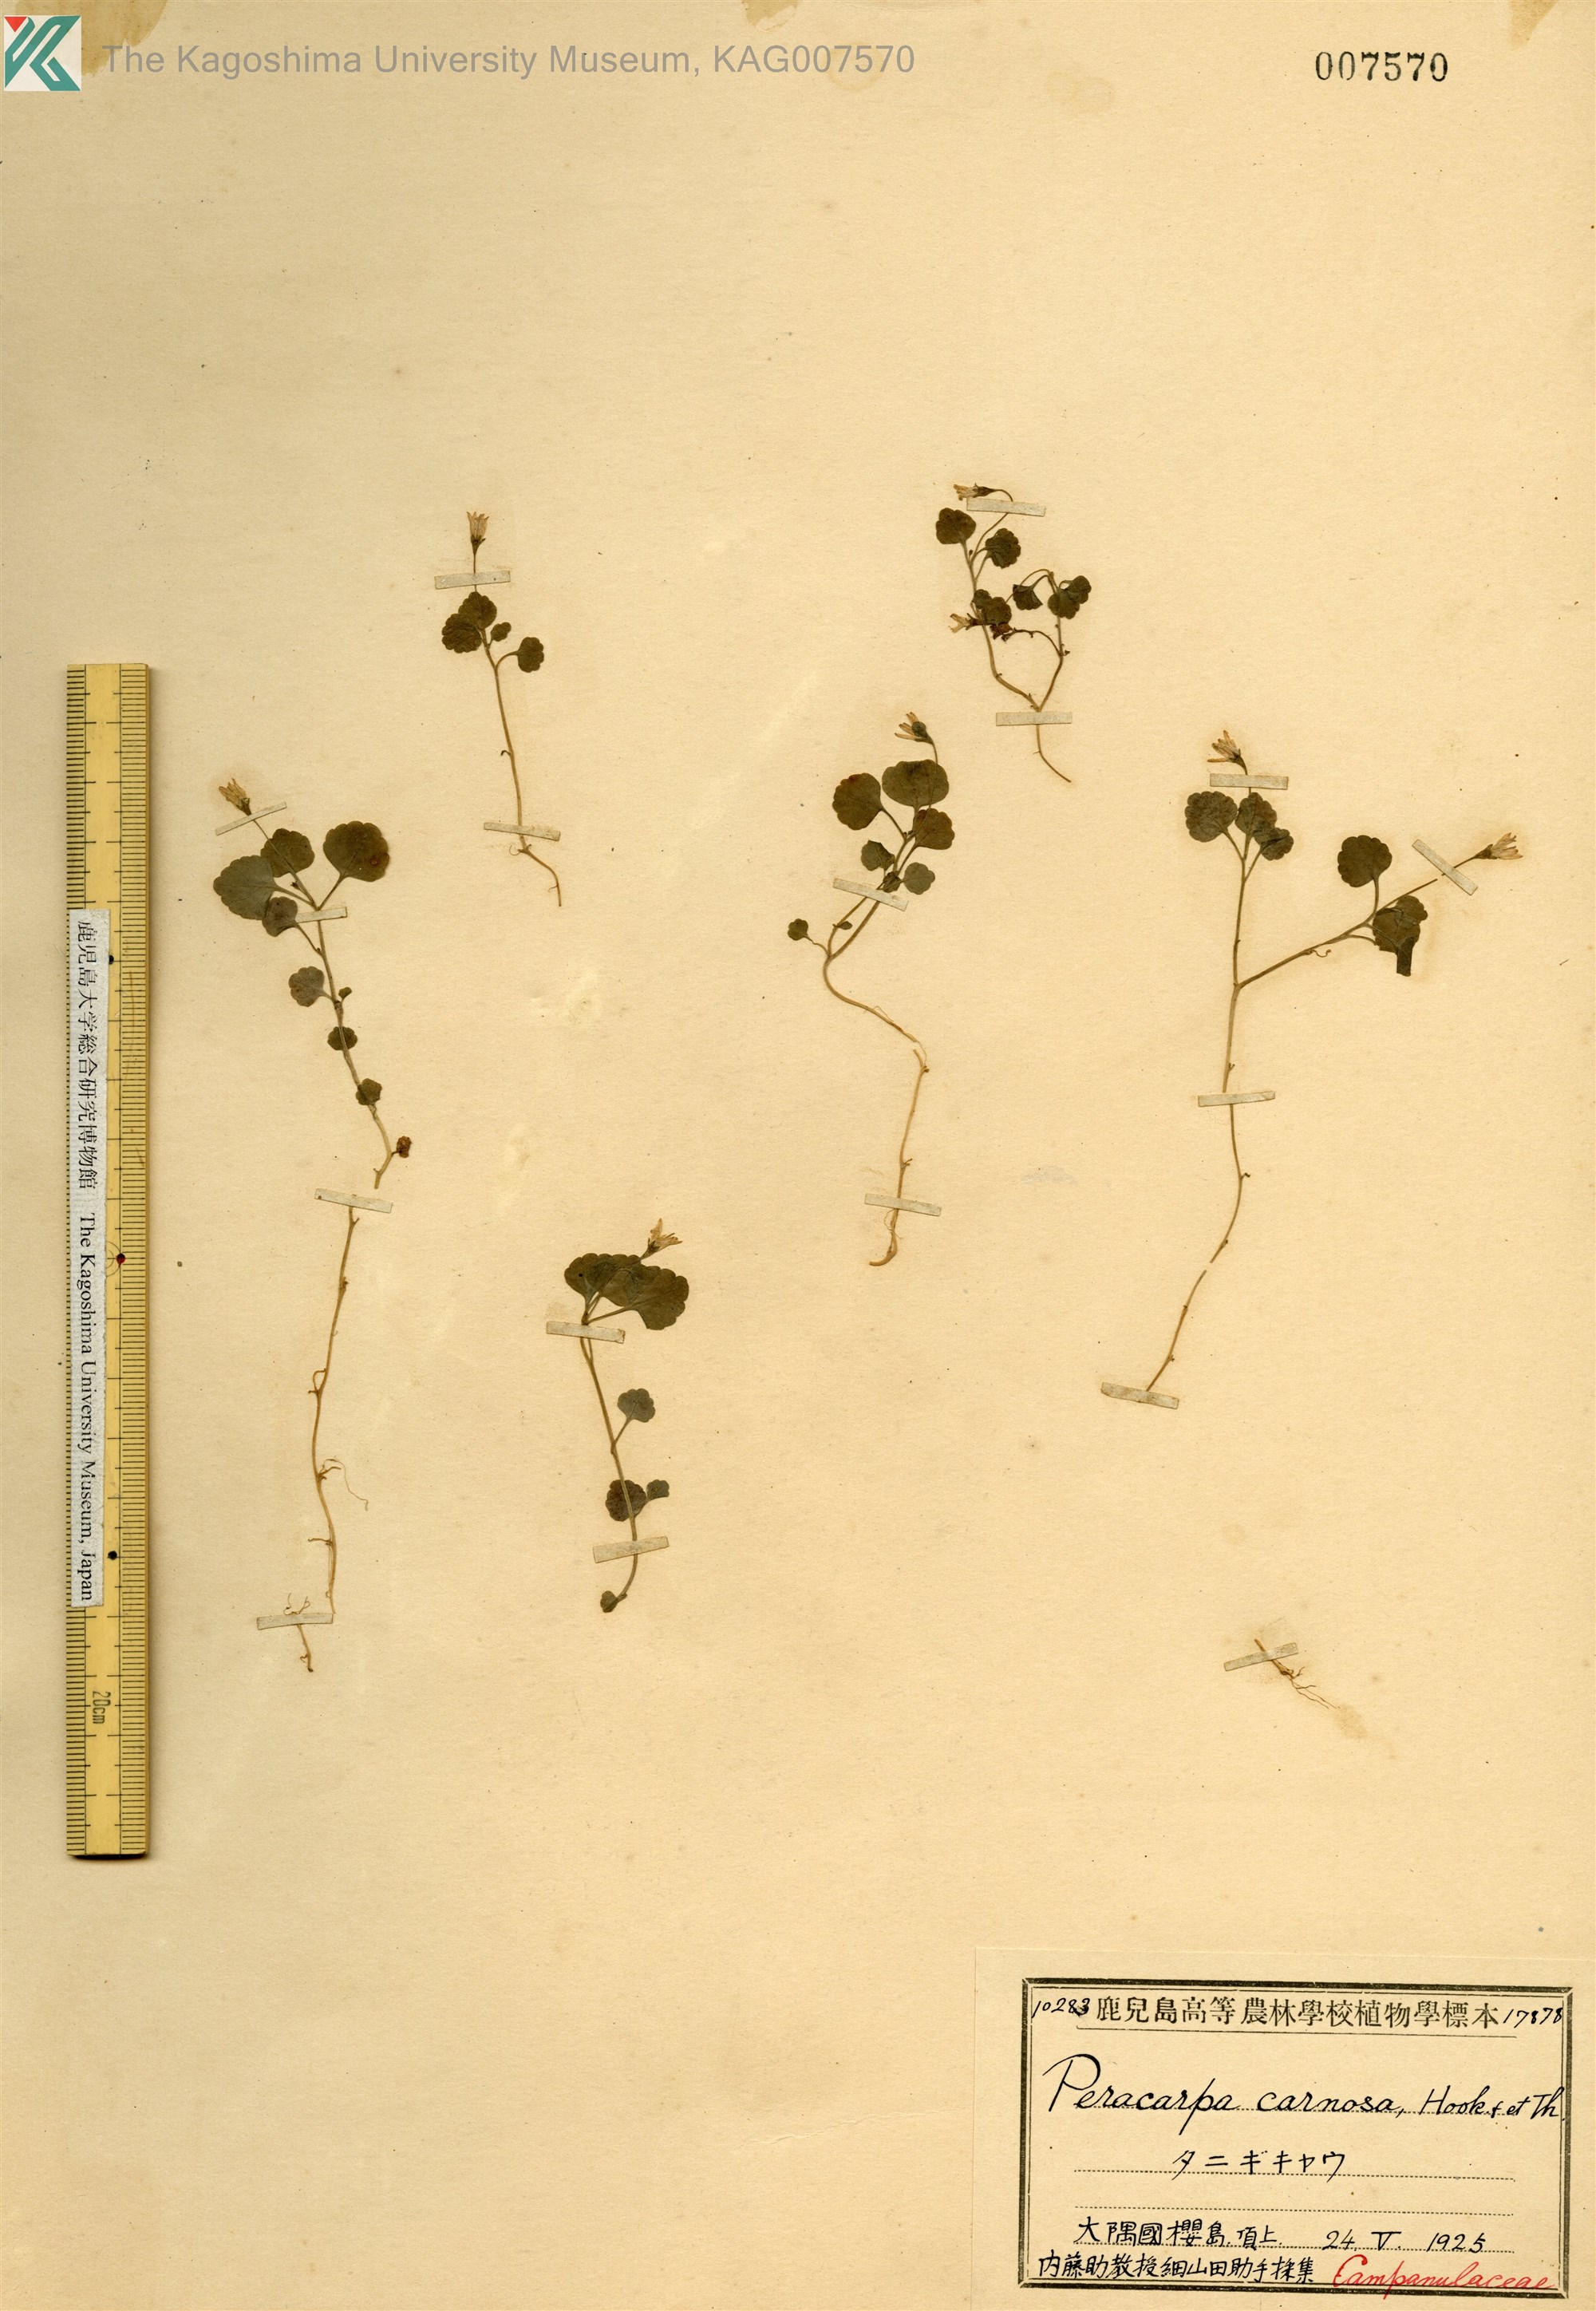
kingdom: Plantae
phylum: Tracheophyta
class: Magnoliopsida
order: Asterales
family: Campanulaceae
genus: Peracarpa
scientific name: Peracarpa carnosa
